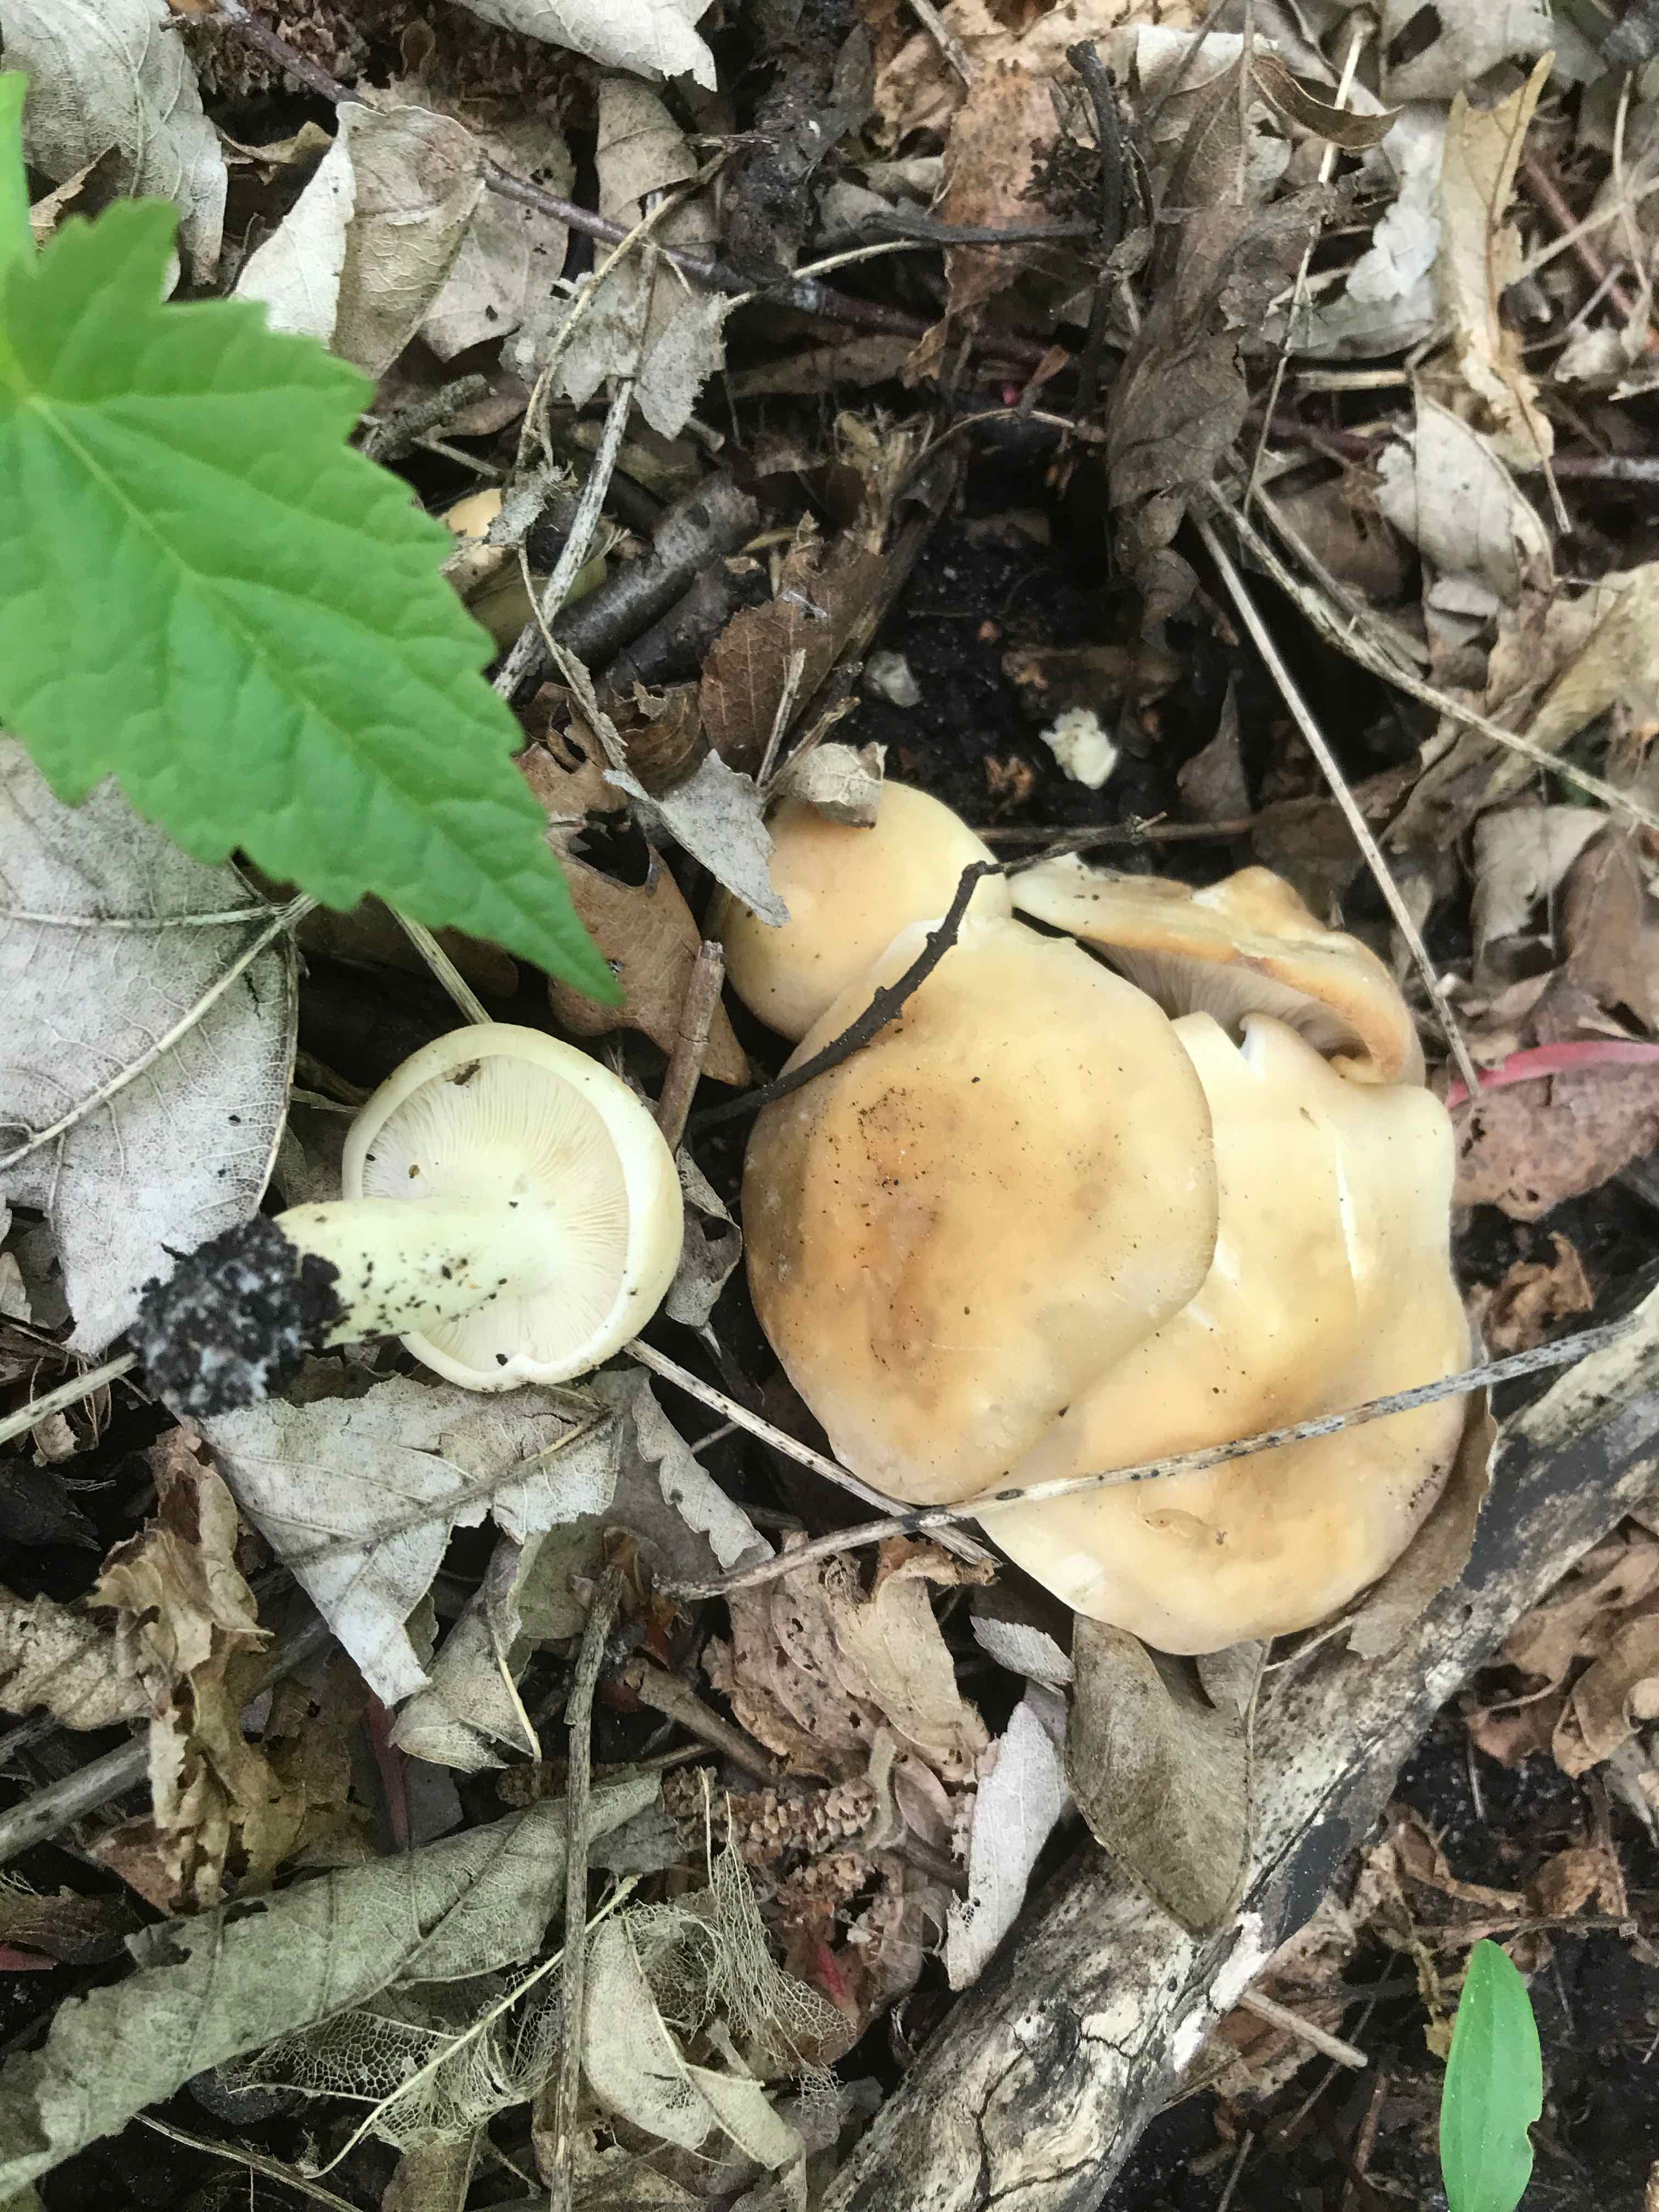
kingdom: Fungi
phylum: Basidiomycota
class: Agaricomycetes
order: Agaricales
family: Lyophyllaceae
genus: Calocybe
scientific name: Calocybe gambosa
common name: vårmusseron
